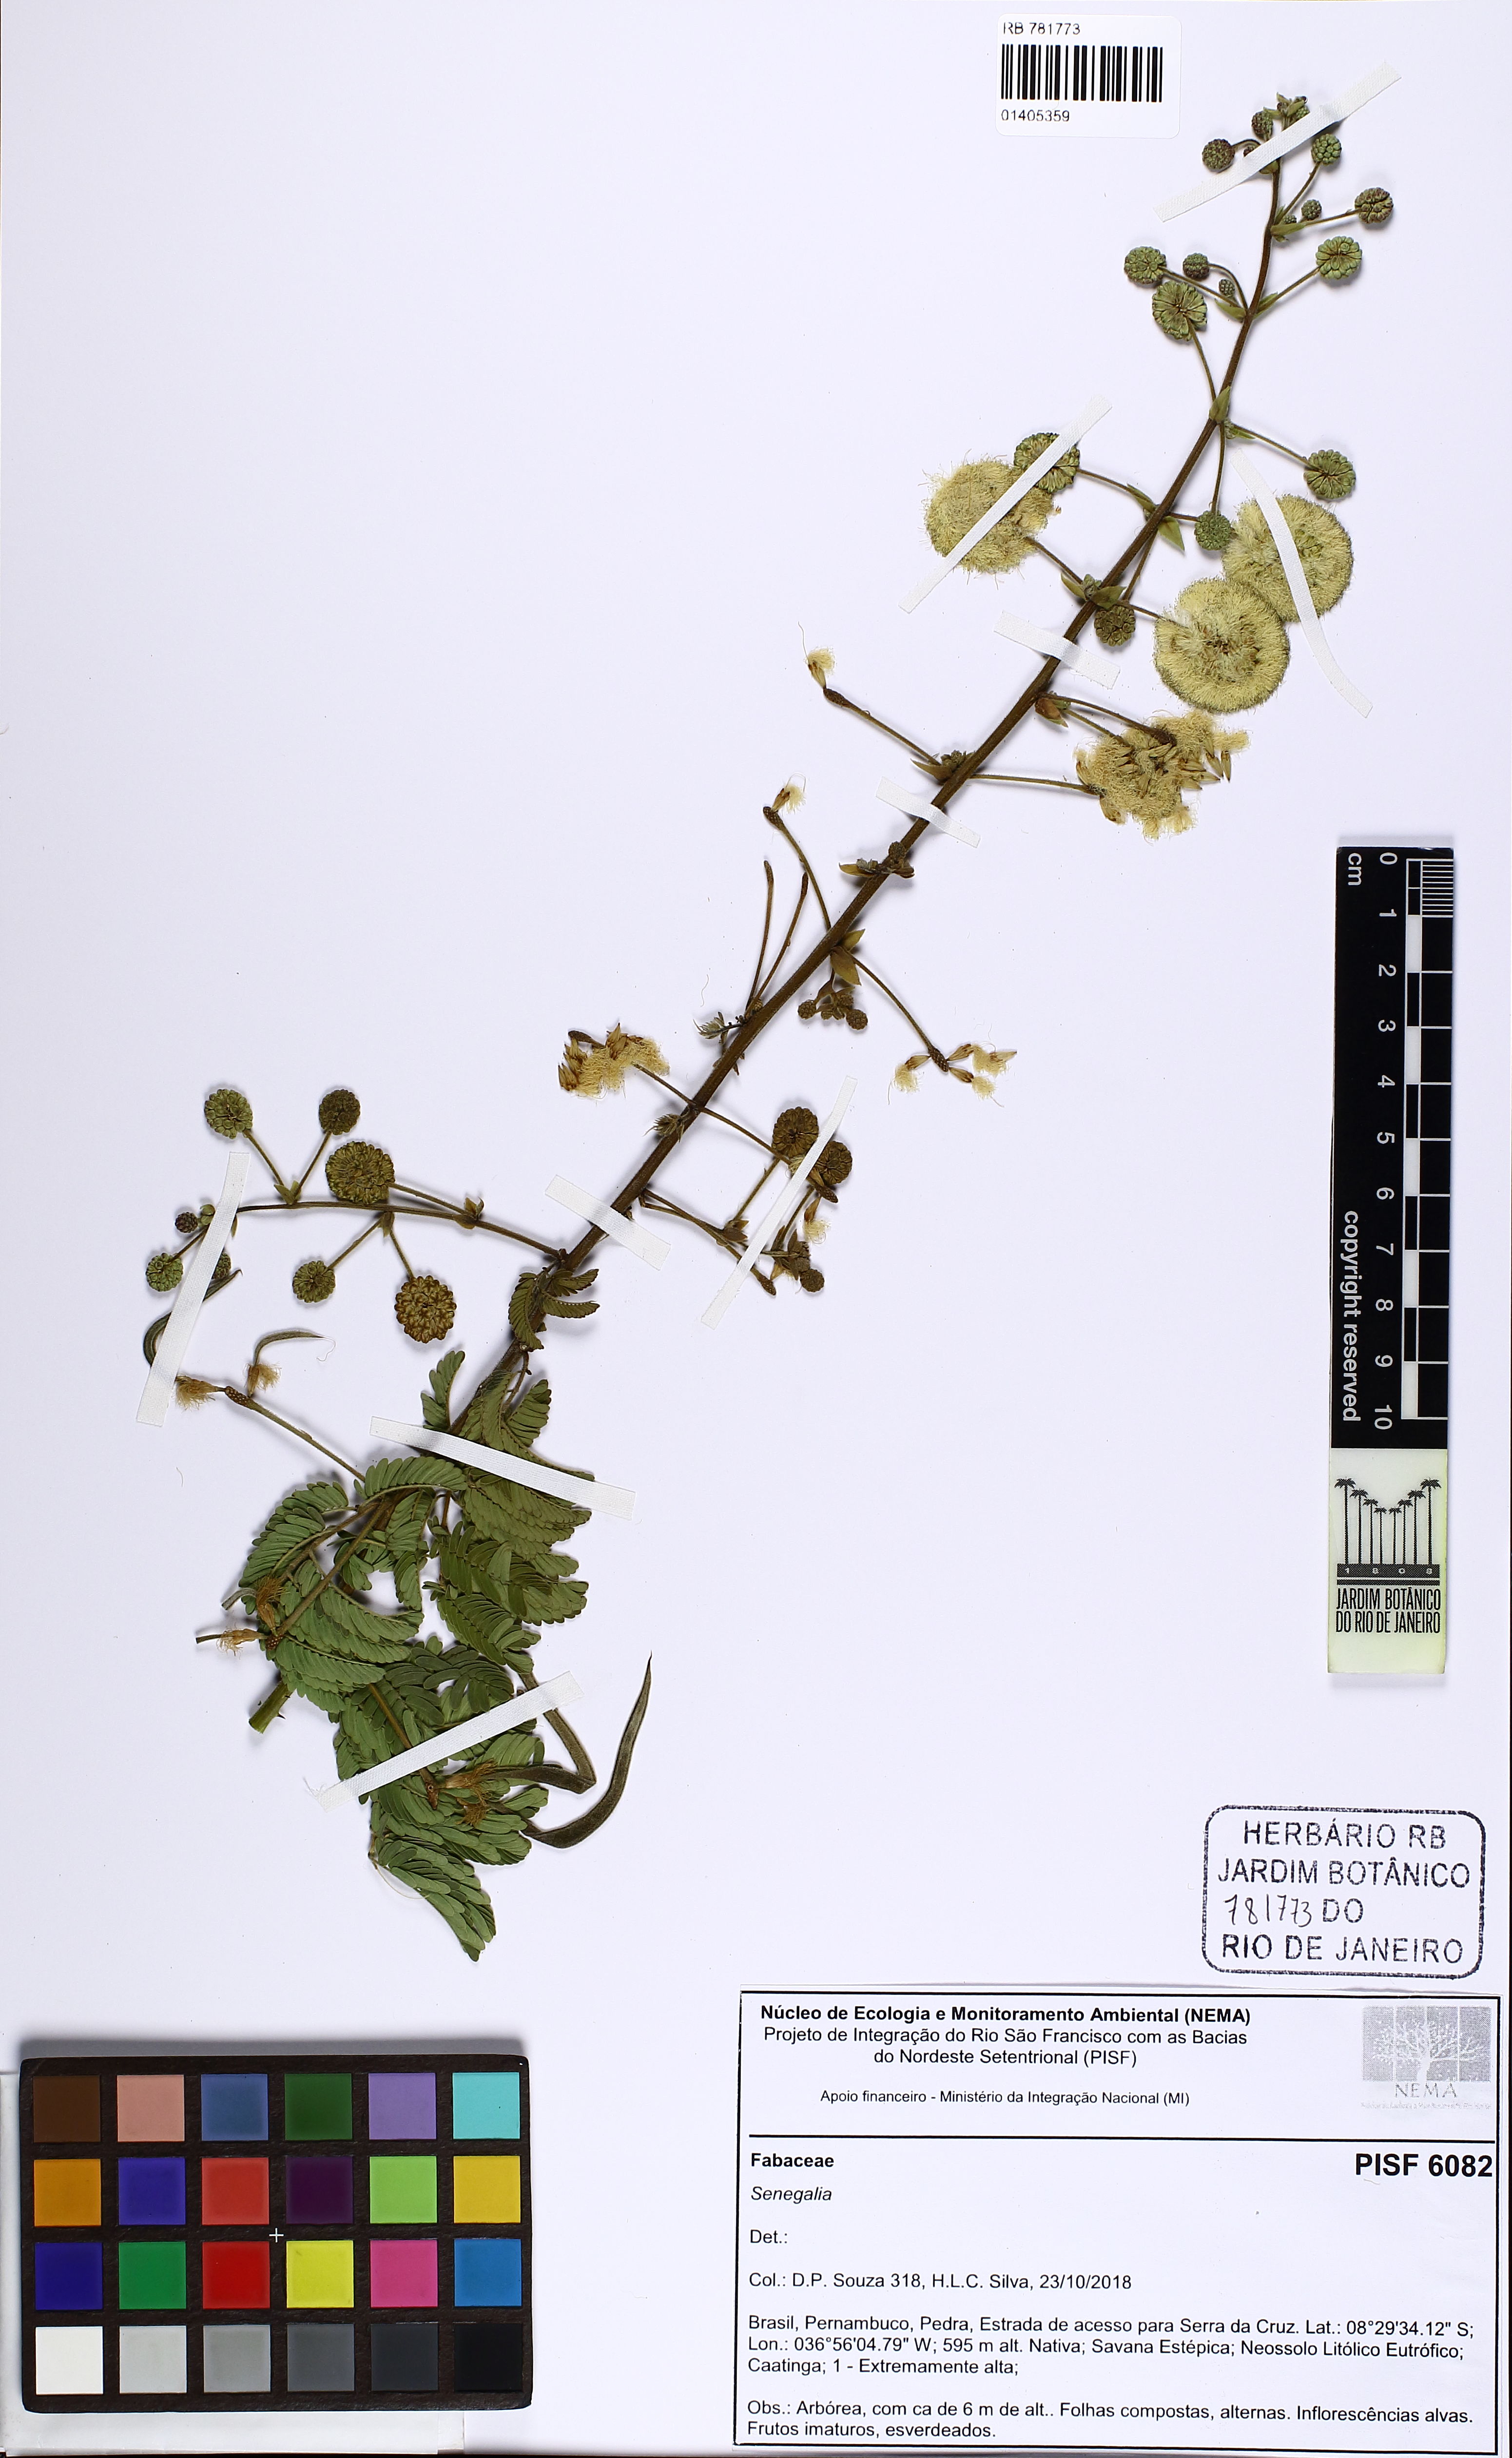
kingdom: Plantae
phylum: Tracheophyta
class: Magnoliopsida
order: Fabales
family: Fabaceae
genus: Senegalia
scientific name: Senegalia
